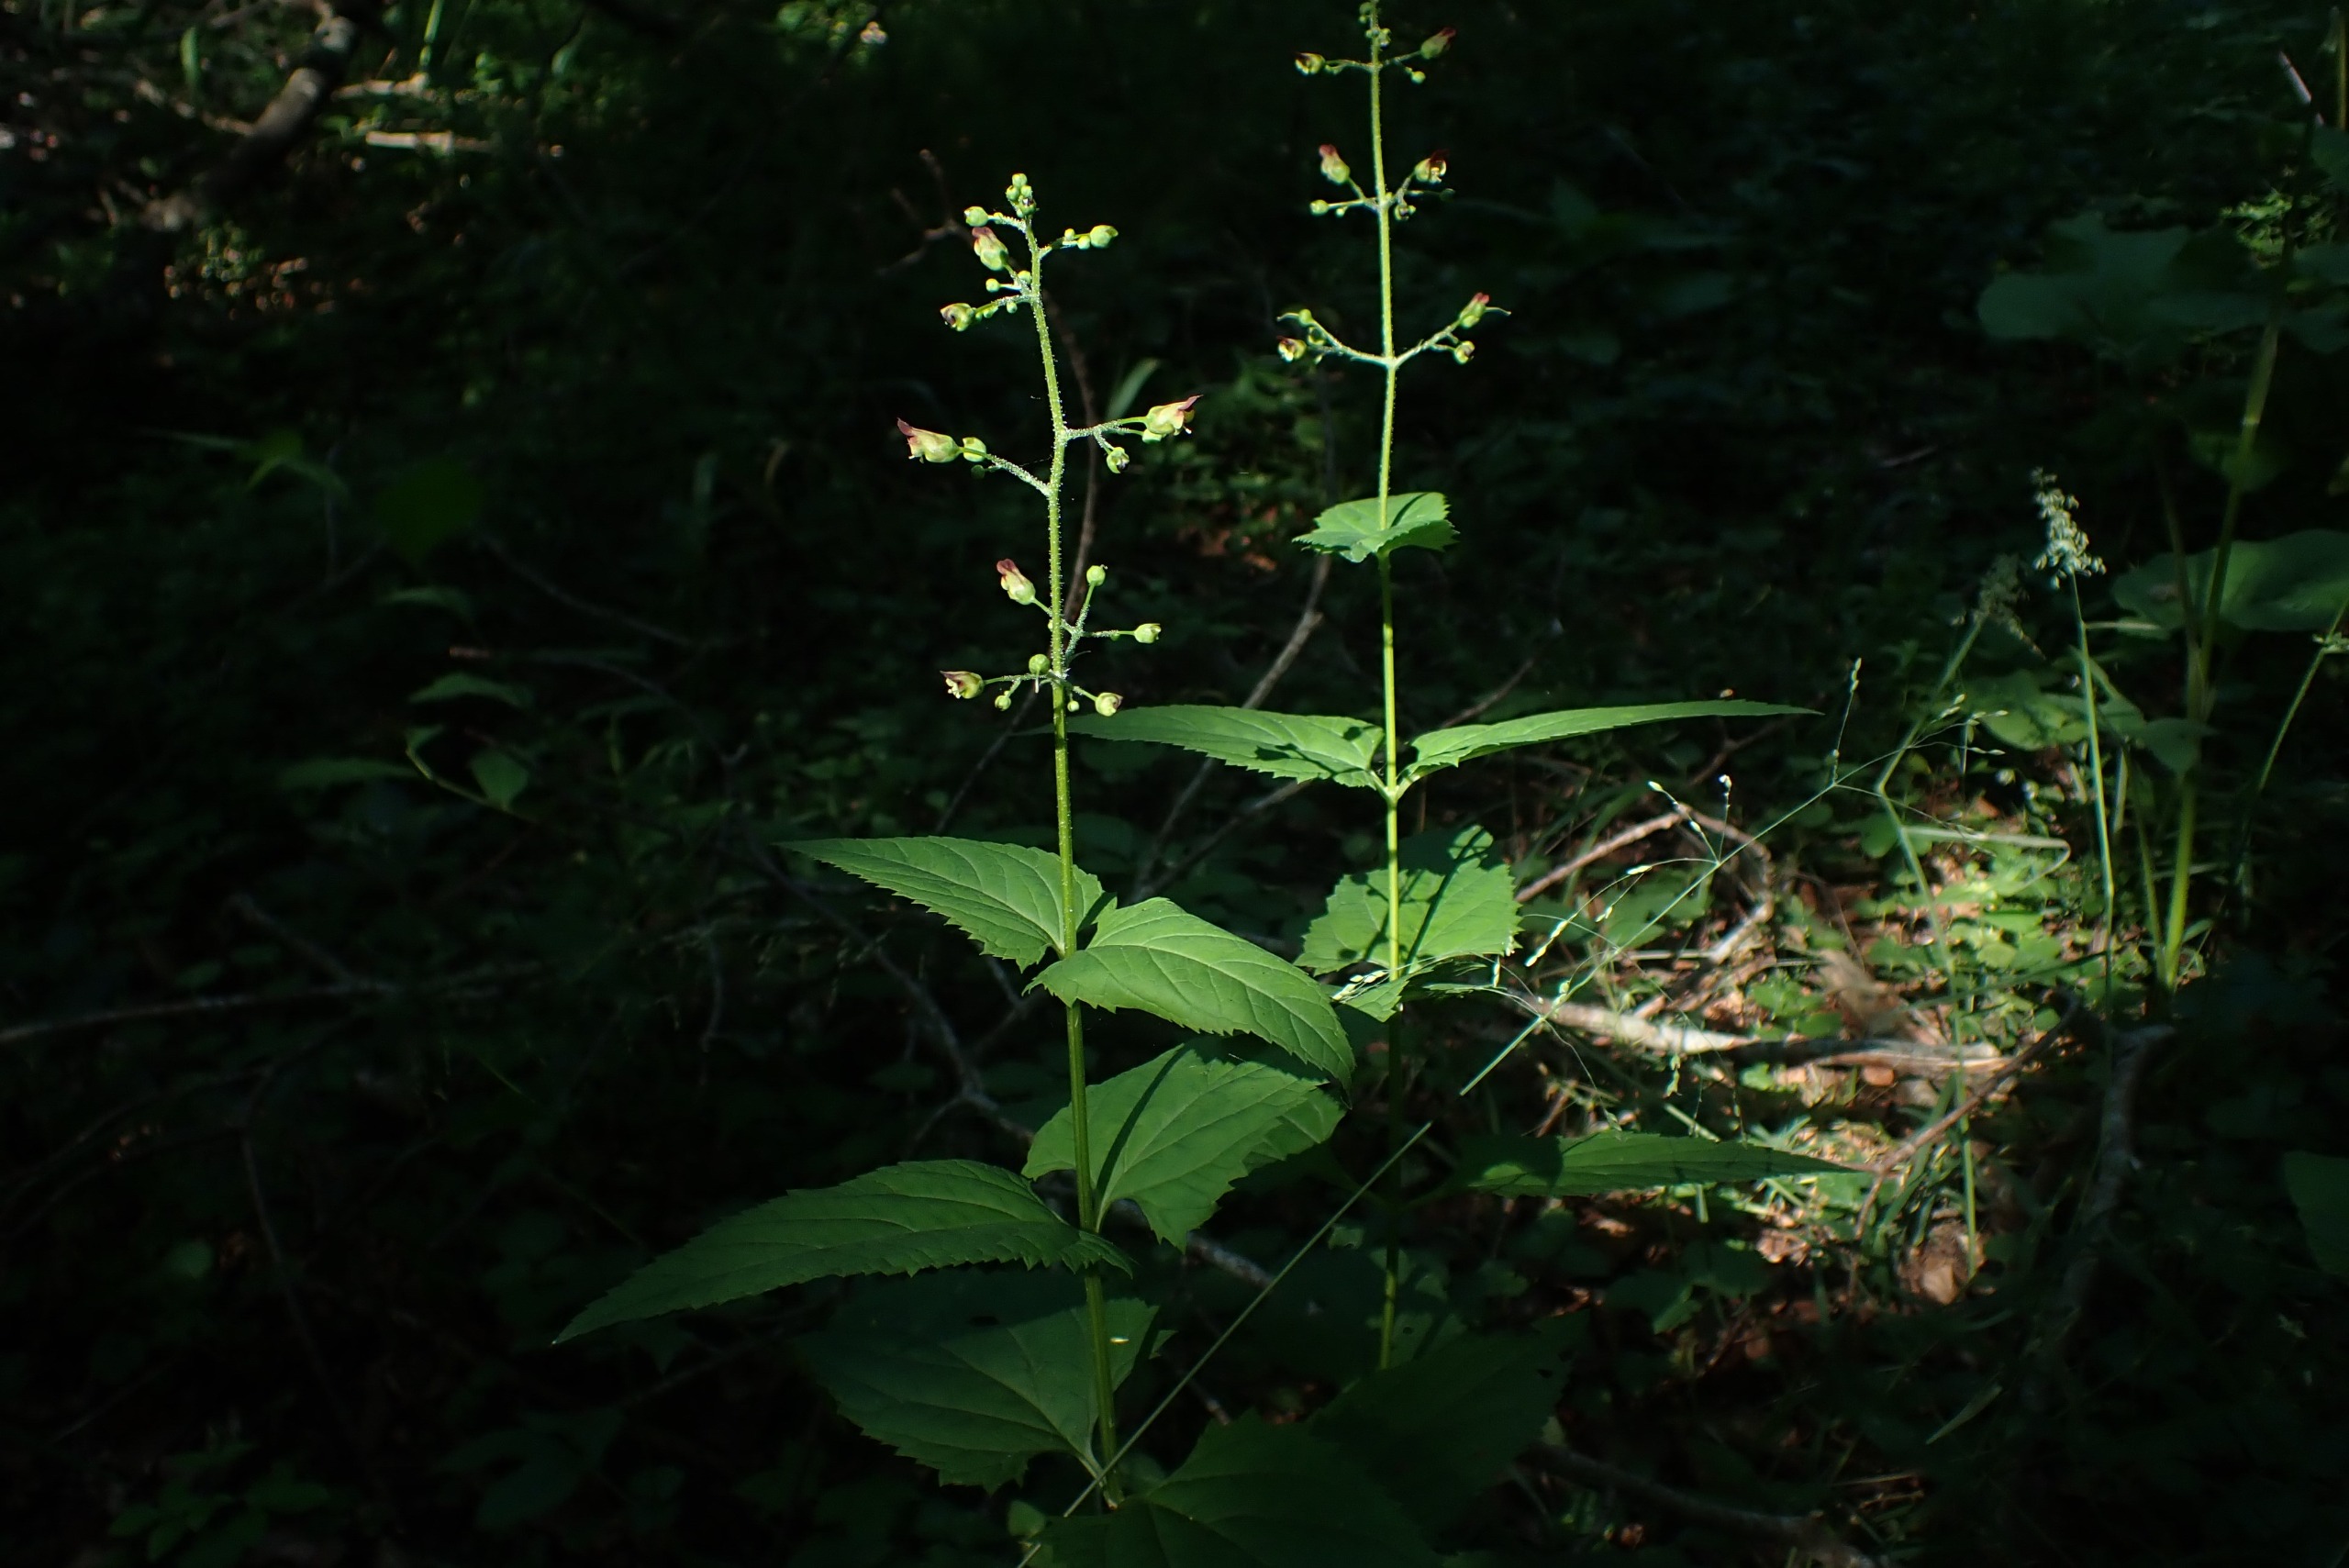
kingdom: Plantae
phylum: Tracheophyta
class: Magnoliopsida
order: Lamiales
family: Scrophulariaceae
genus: Scrophularia
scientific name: Scrophularia nodosa
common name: Knoldet brunrod
